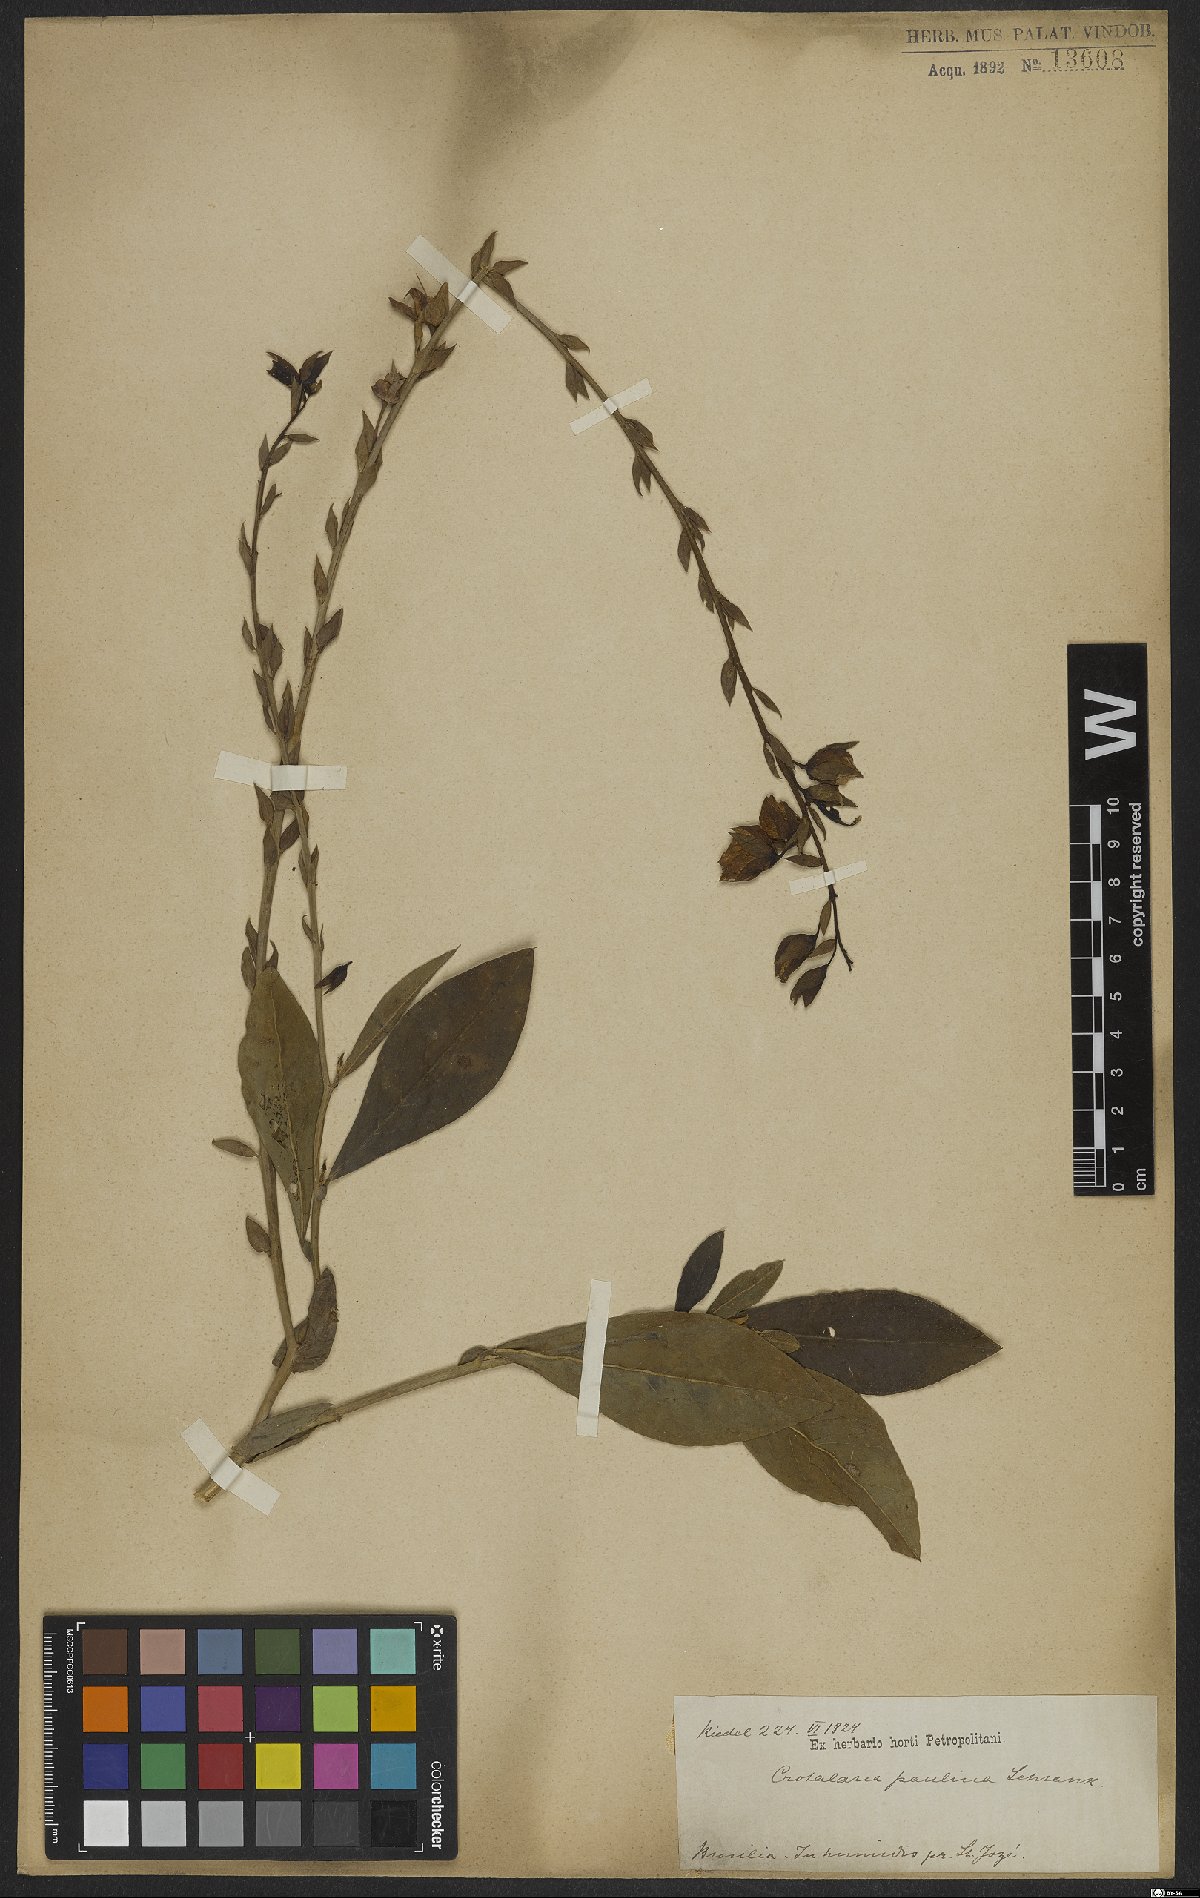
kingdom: Plantae
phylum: Tracheophyta
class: Magnoliopsida
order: Fabales
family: Fabaceae
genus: Crotalaria
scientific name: Crotalaria paulina
